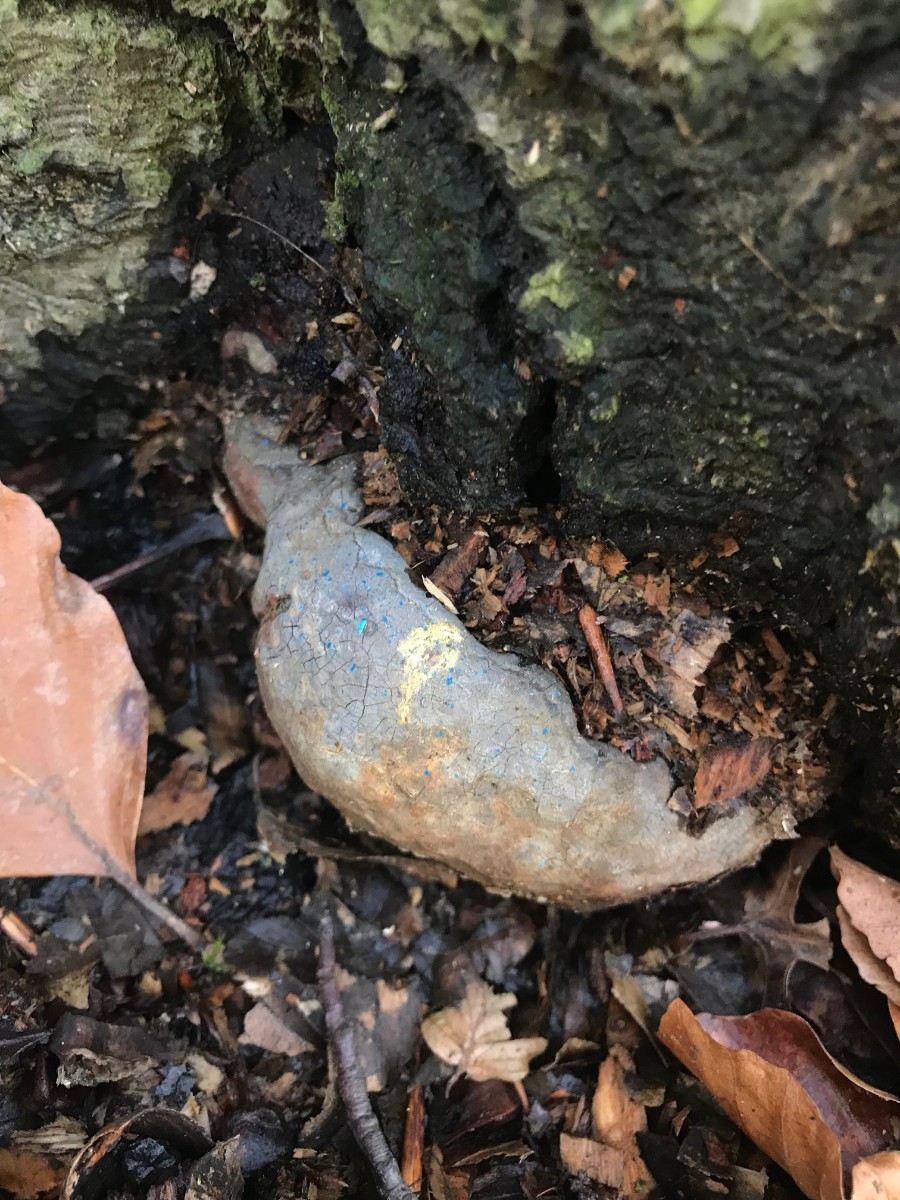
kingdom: Fungi
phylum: Basidiomycota
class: Agaricomycetes
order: Polyporales
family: Polyporaceae
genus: Ganoderma
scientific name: Ganoderma pfeifferi
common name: kobberrød lakporesvamp
